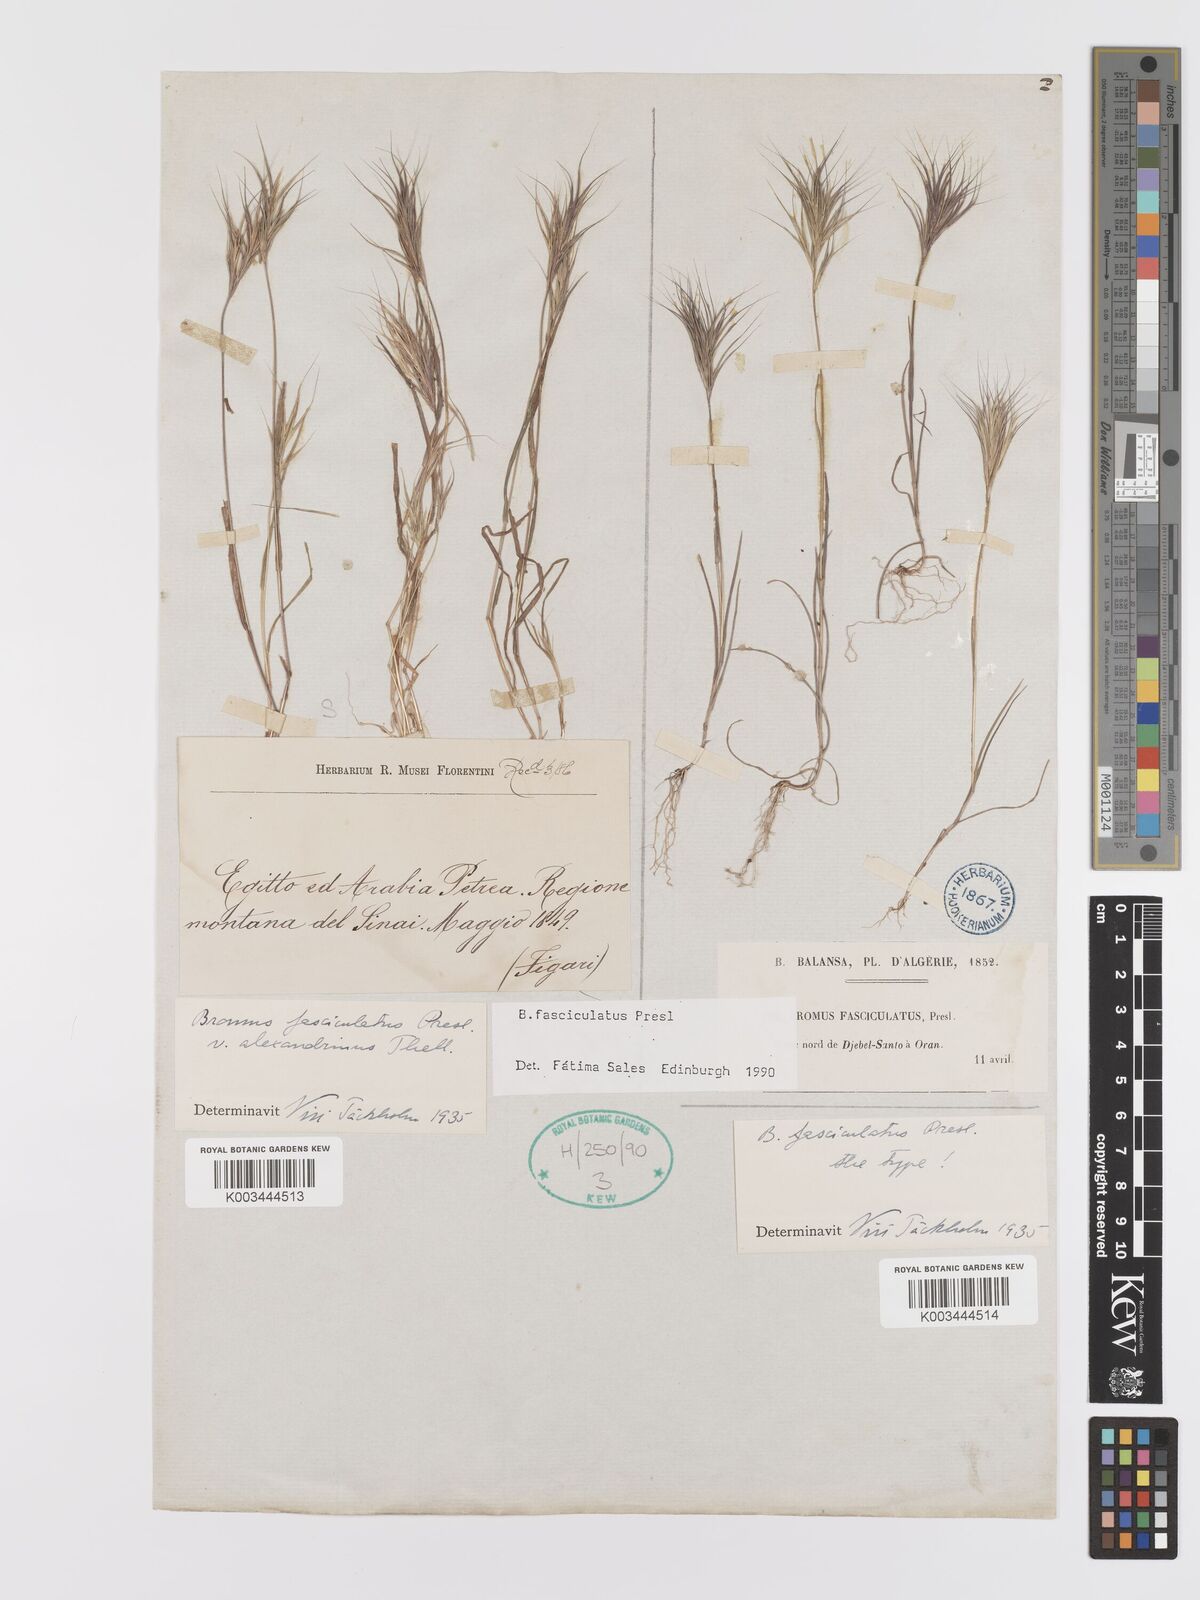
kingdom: Plantae
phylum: Tracheophyta
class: Liliopsida
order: Poales
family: Poaceae
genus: Bromus
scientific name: Bromus fasciculatus
